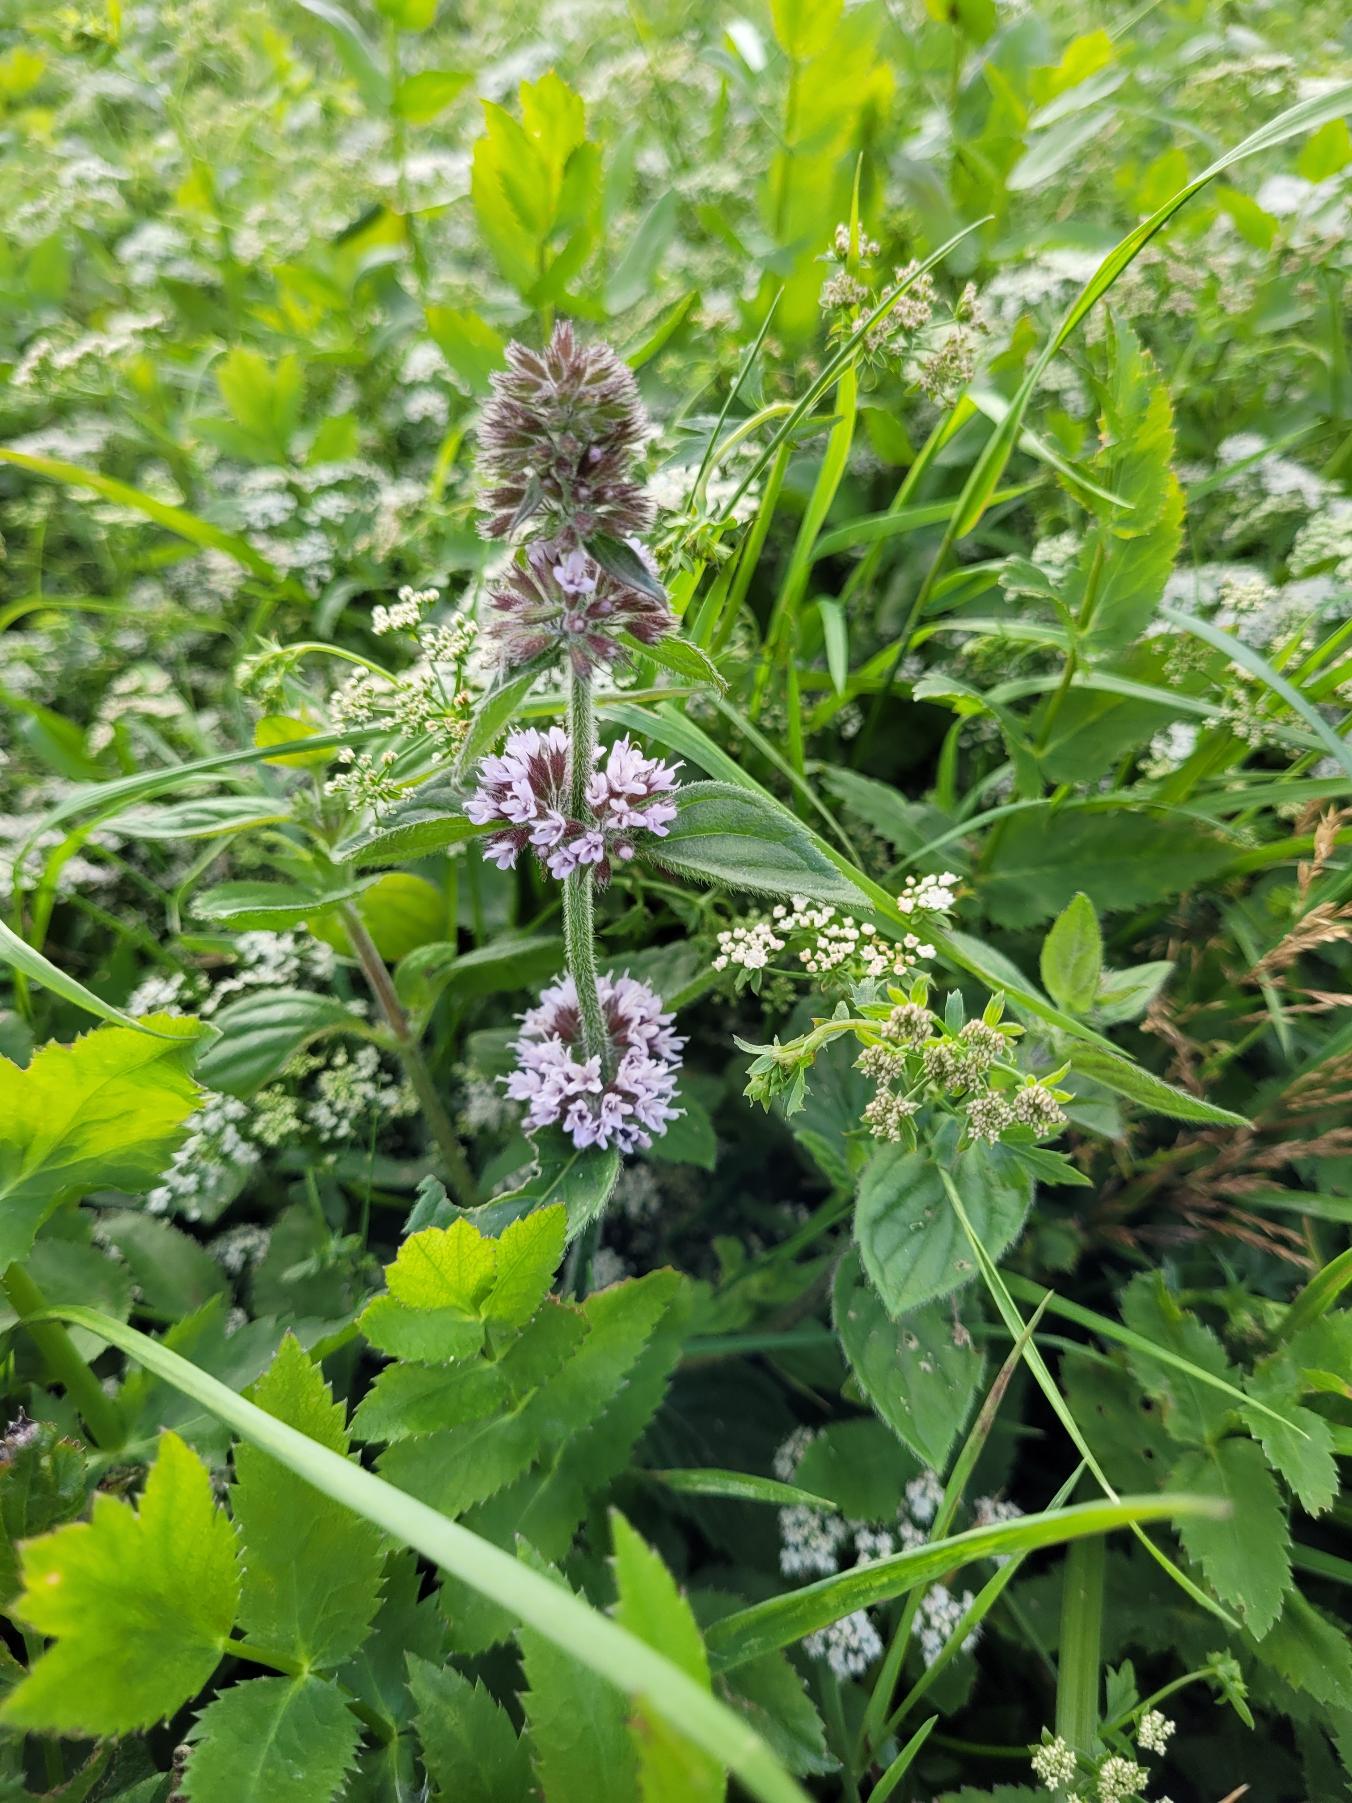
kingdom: Plantae
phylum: Tracheophyta
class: Magnoliopsida
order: Lamiales
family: Lamiaceae
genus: Mentha
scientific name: Mentha verticillata
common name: Krans-mynte
